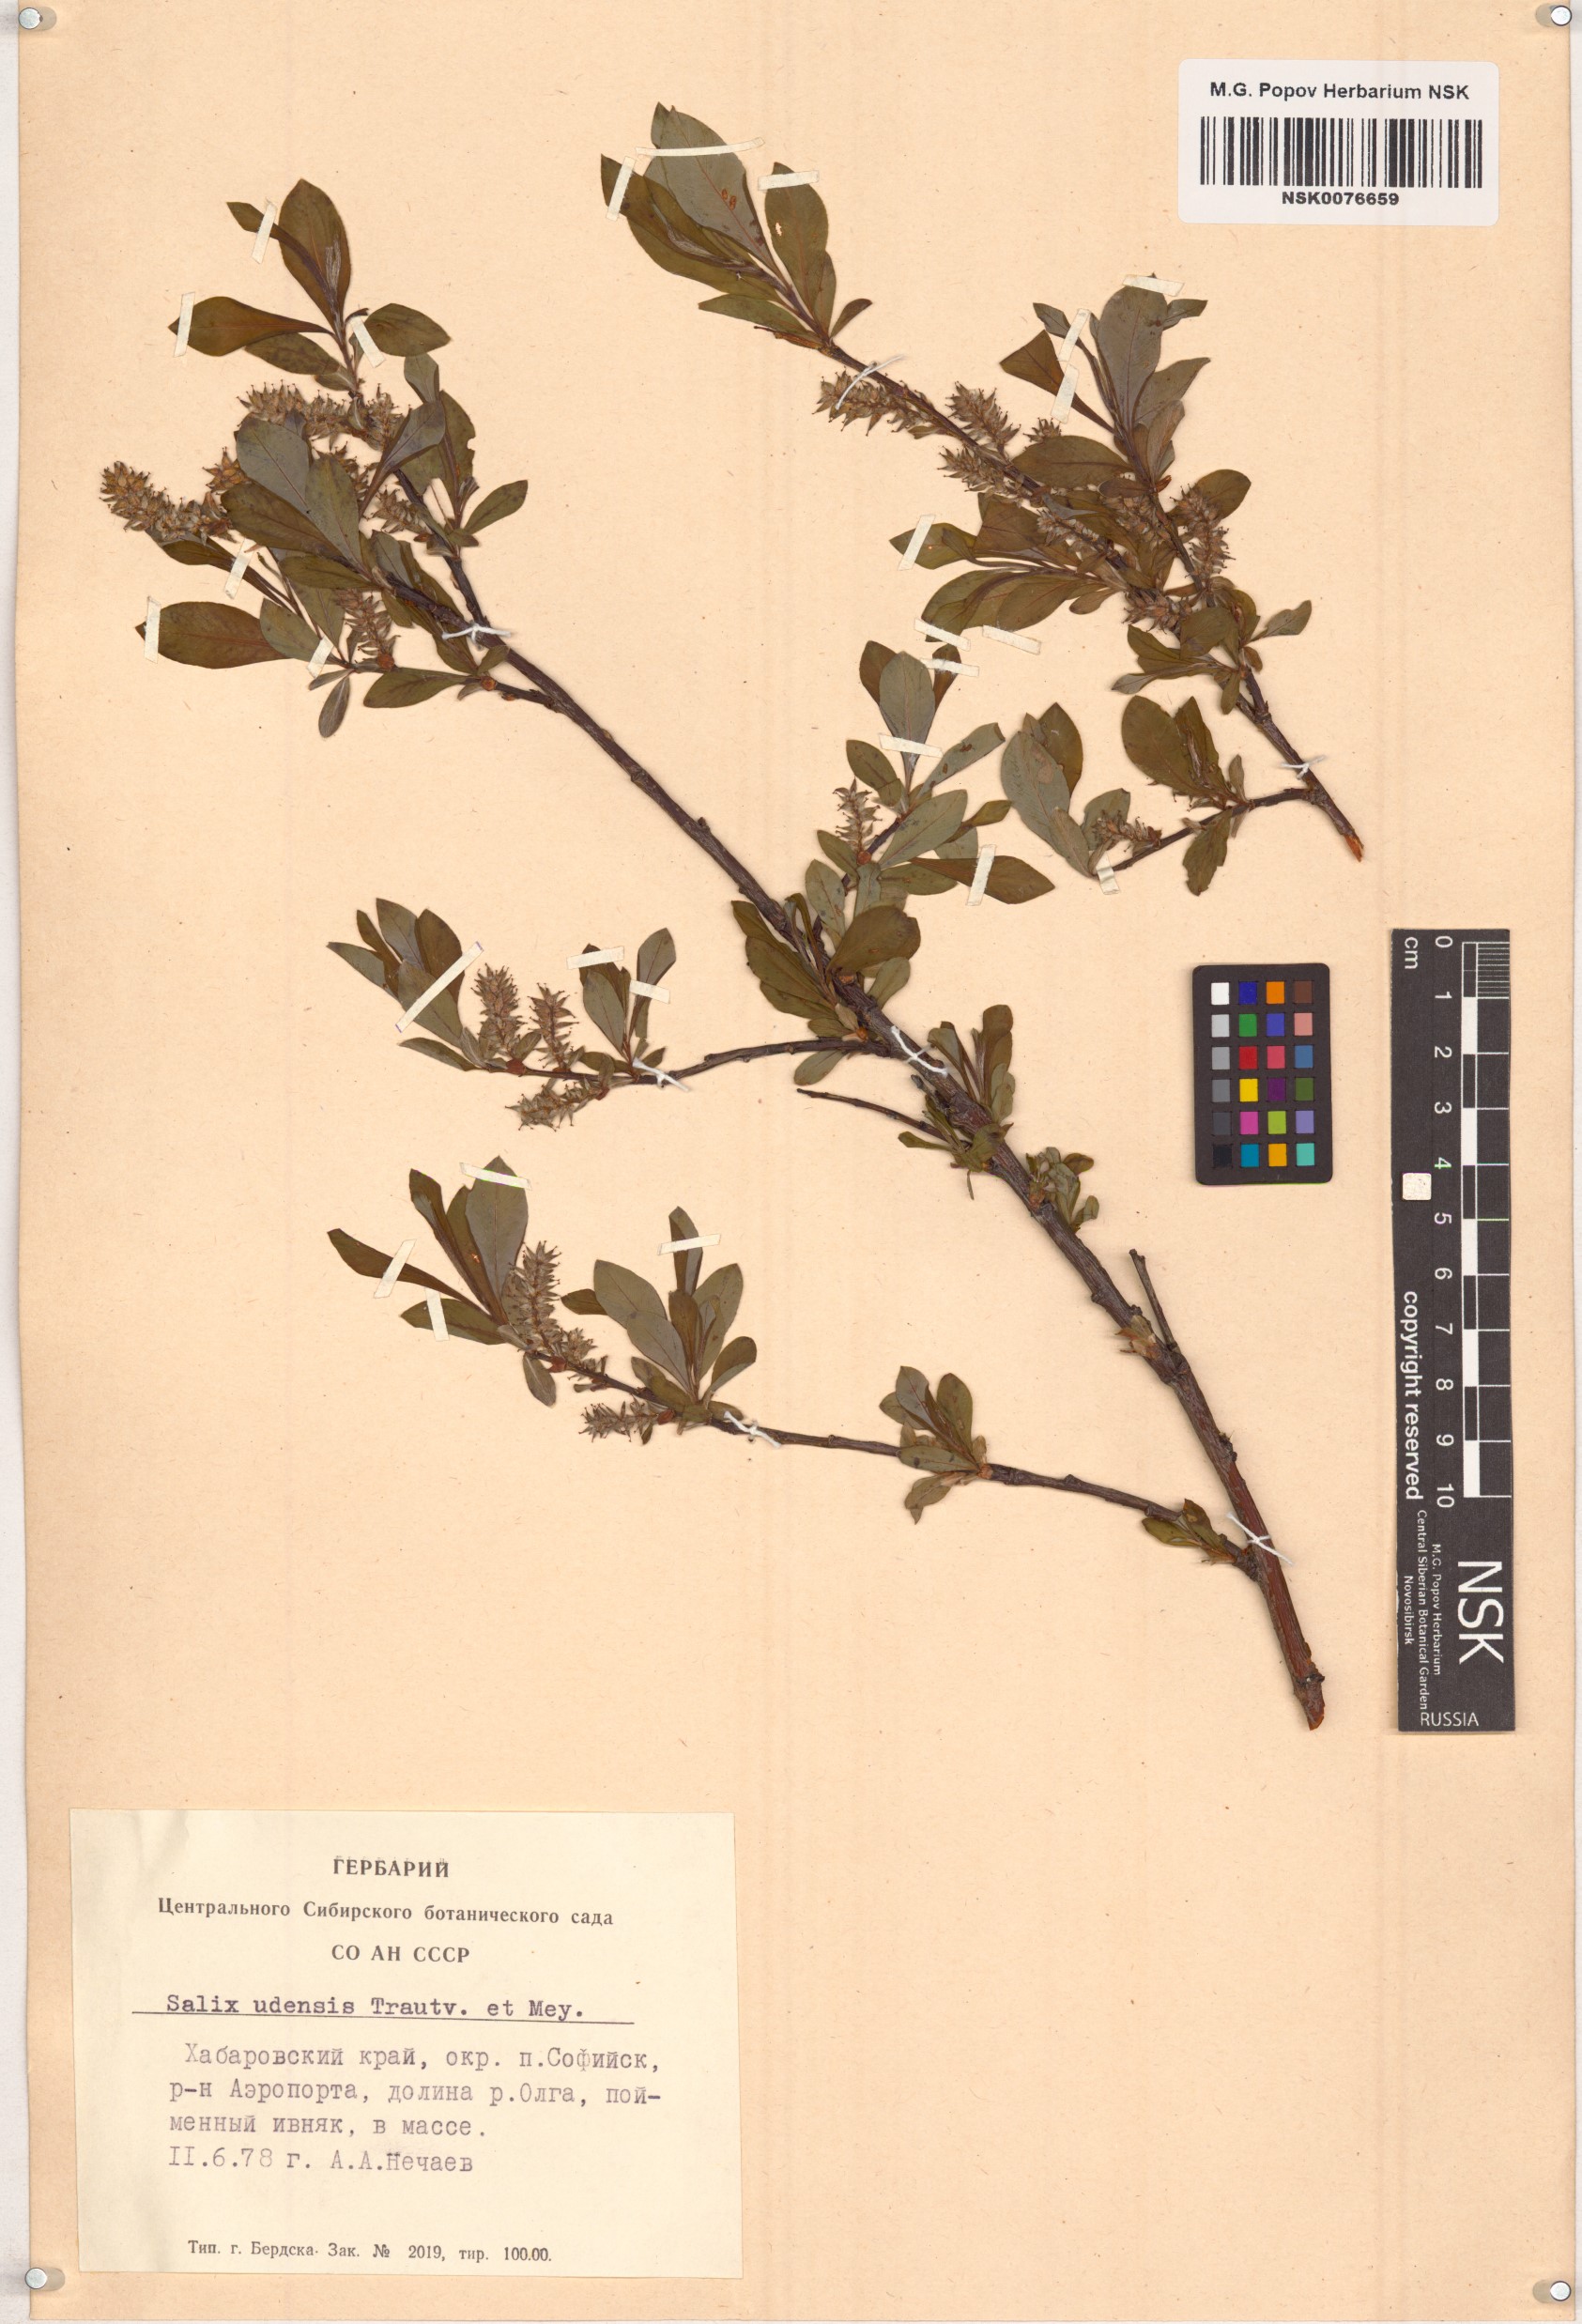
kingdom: Plantae
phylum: Tracheophyta
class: Magnoliopsida
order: Malpighiales
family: Salicaceae
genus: Salix
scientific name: Salix udensis
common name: Sachalin willow
